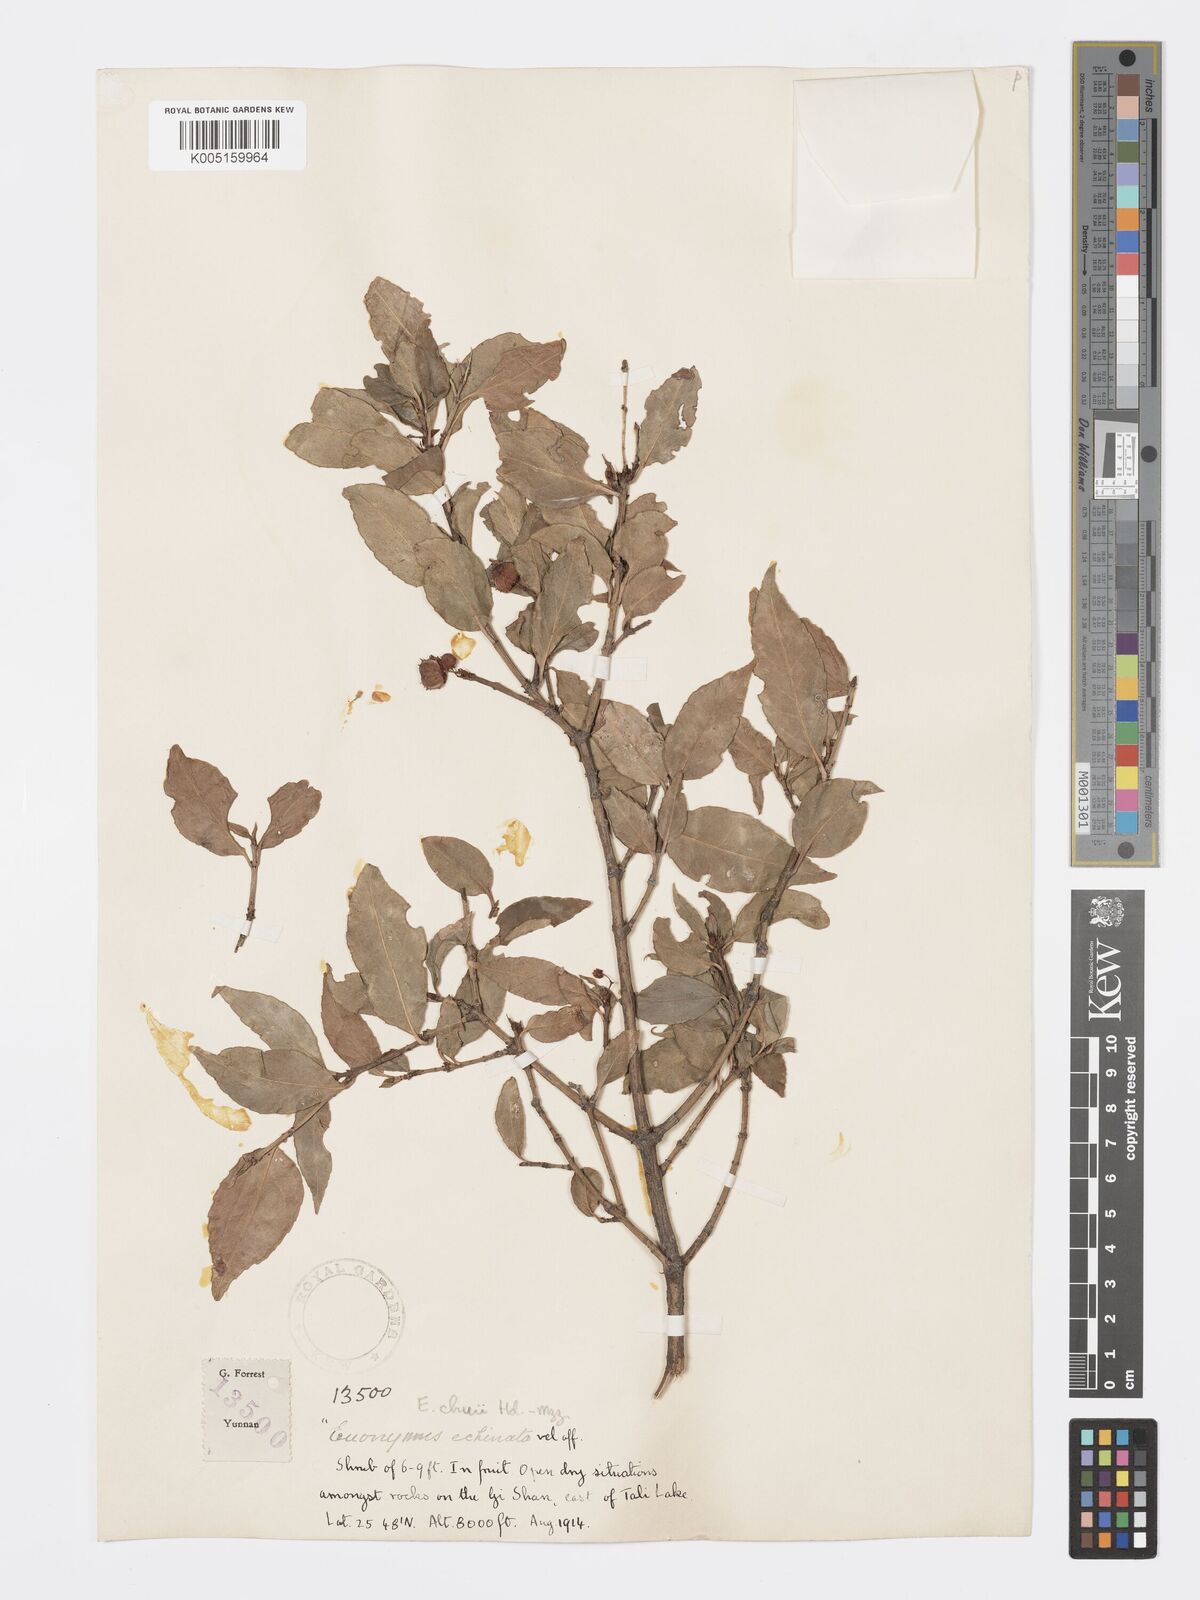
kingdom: Plantae
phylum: Tracheophyta
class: Magnoliopsida
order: Celastrales
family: Celastraceae
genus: Euonymus
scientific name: Euonymus chui
